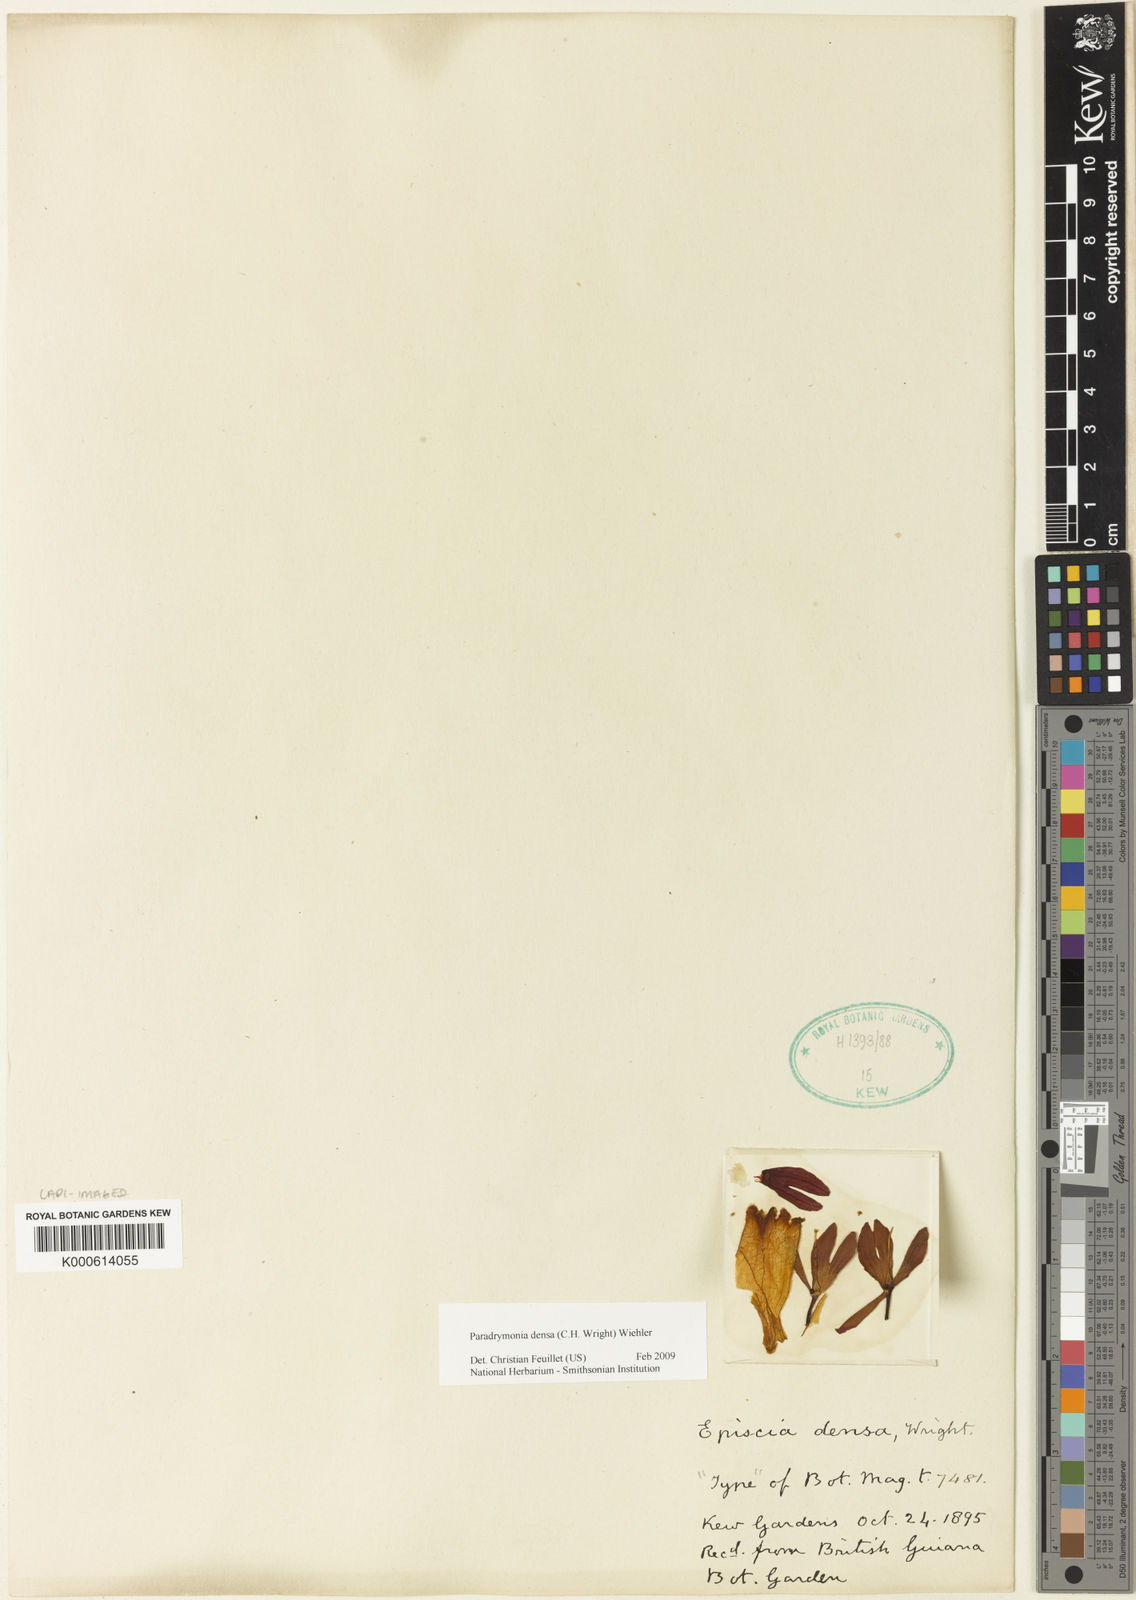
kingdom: Plantae
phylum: Tracheophyta
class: Magnoliopsida
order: Lamiales
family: Gesneriaceae
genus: Centrosolenia
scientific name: Centrosolenia densa
